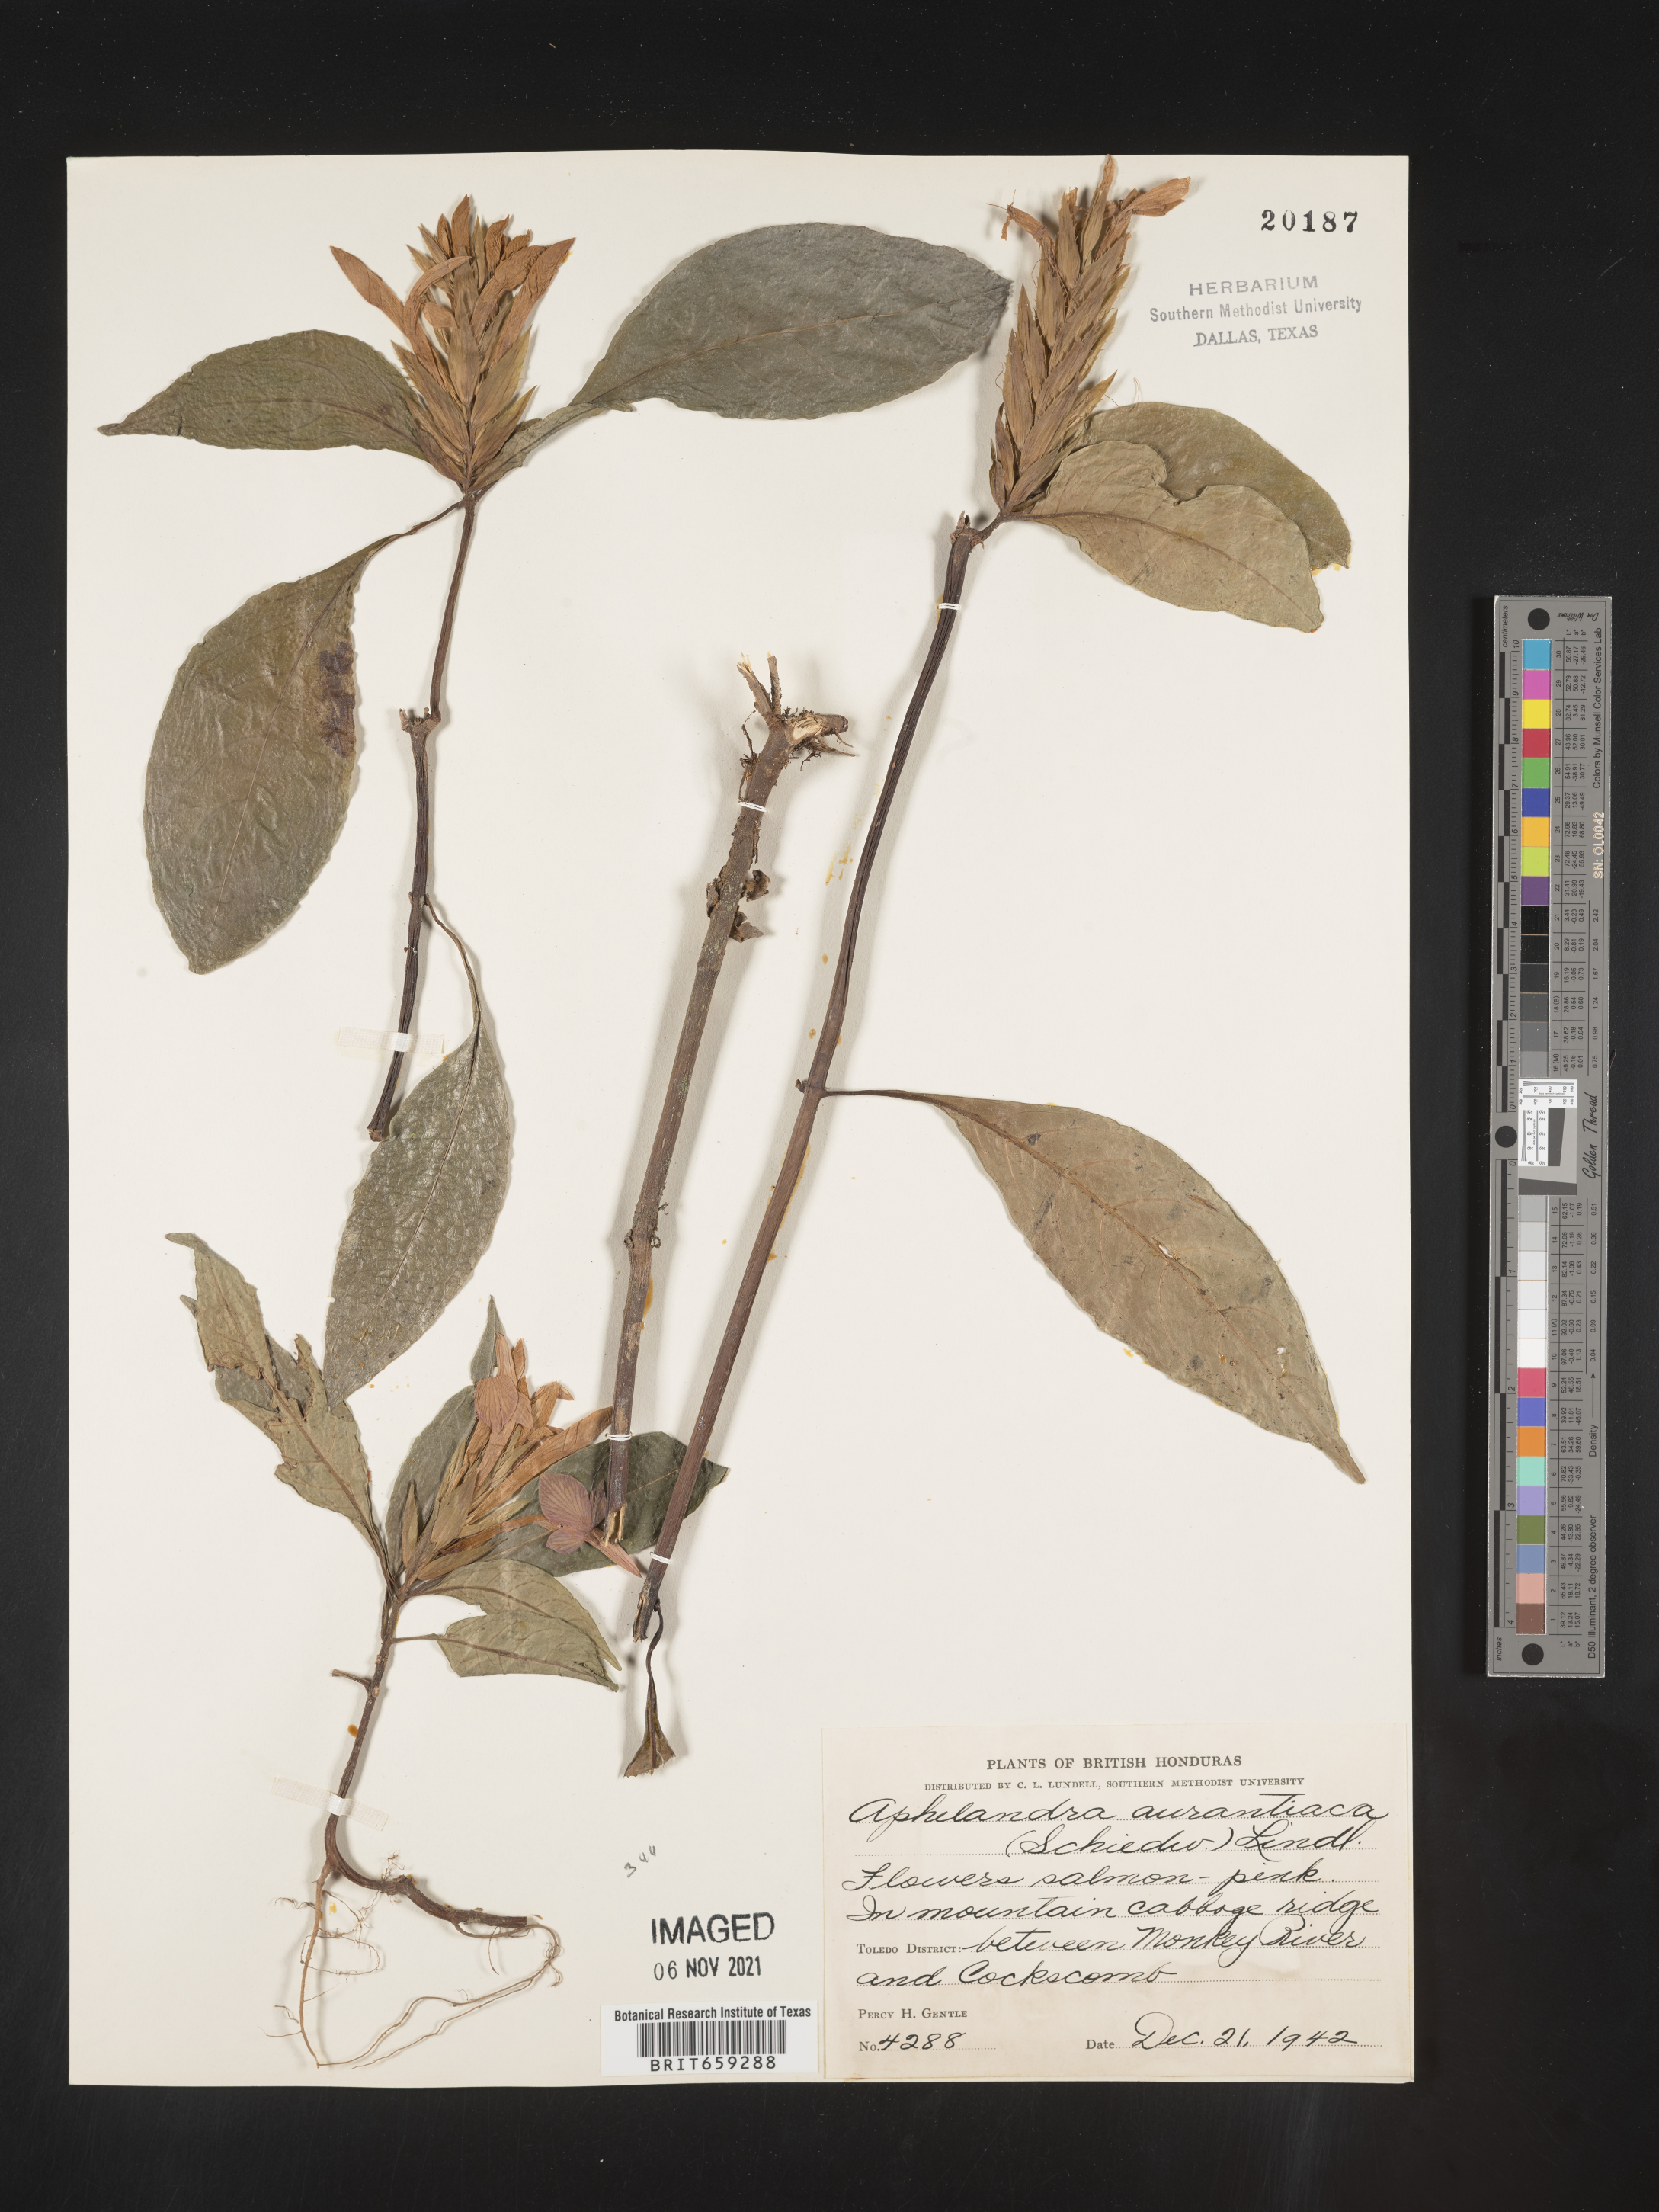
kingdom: Plantae
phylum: Tracheophyta
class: Magnoliopsida
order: Lamiales
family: Acanthaceae
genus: Aphelandra
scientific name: Aphelandra
